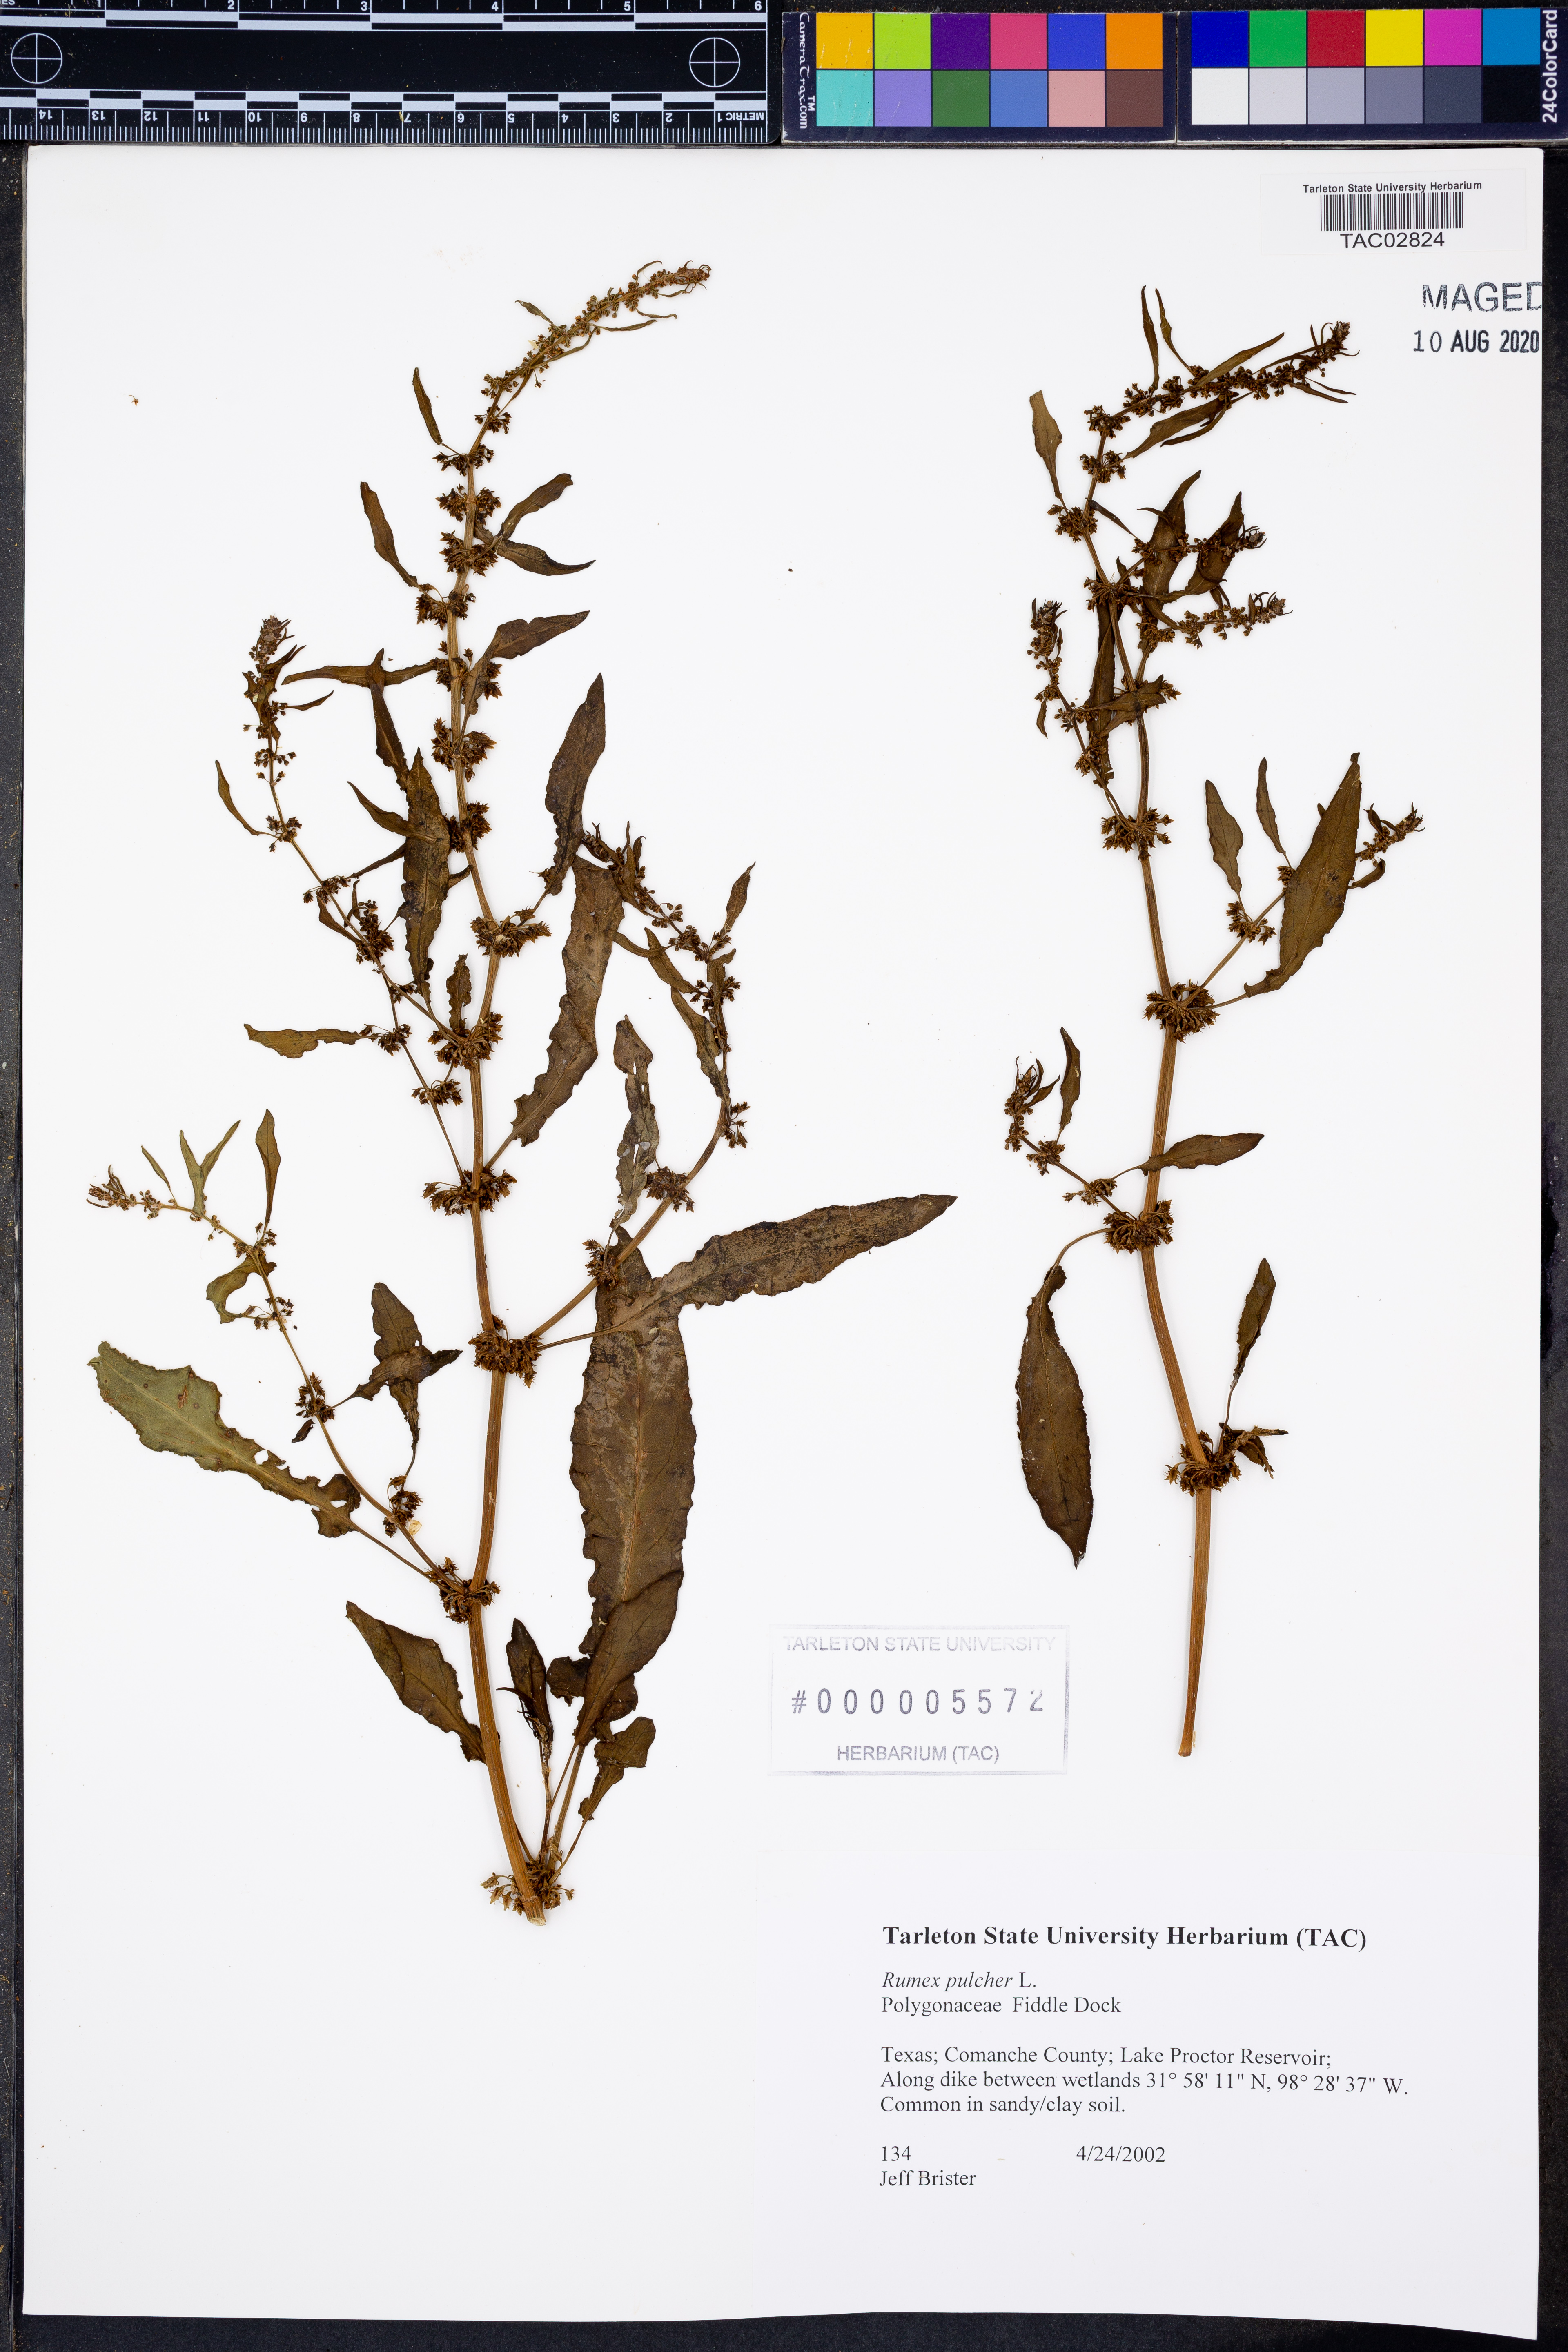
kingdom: Plantae
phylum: Tracheophyta
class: Magnoliopsida
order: Caryophyllales
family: Polygonaceae
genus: Rumex
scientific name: Rumex pulcher
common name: Fiddle dock
